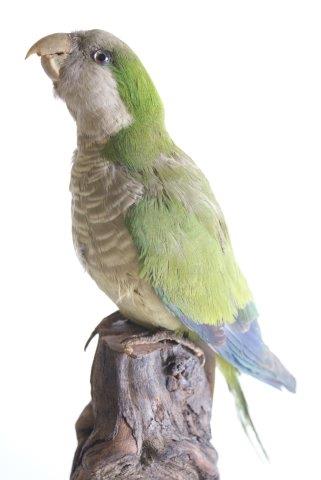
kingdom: Animalia
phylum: Chordata
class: Aves
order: Psittaciformes
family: Psittacidae
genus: Myiopsitta
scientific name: Myiopsitta monachus
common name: Monniksparkiet
